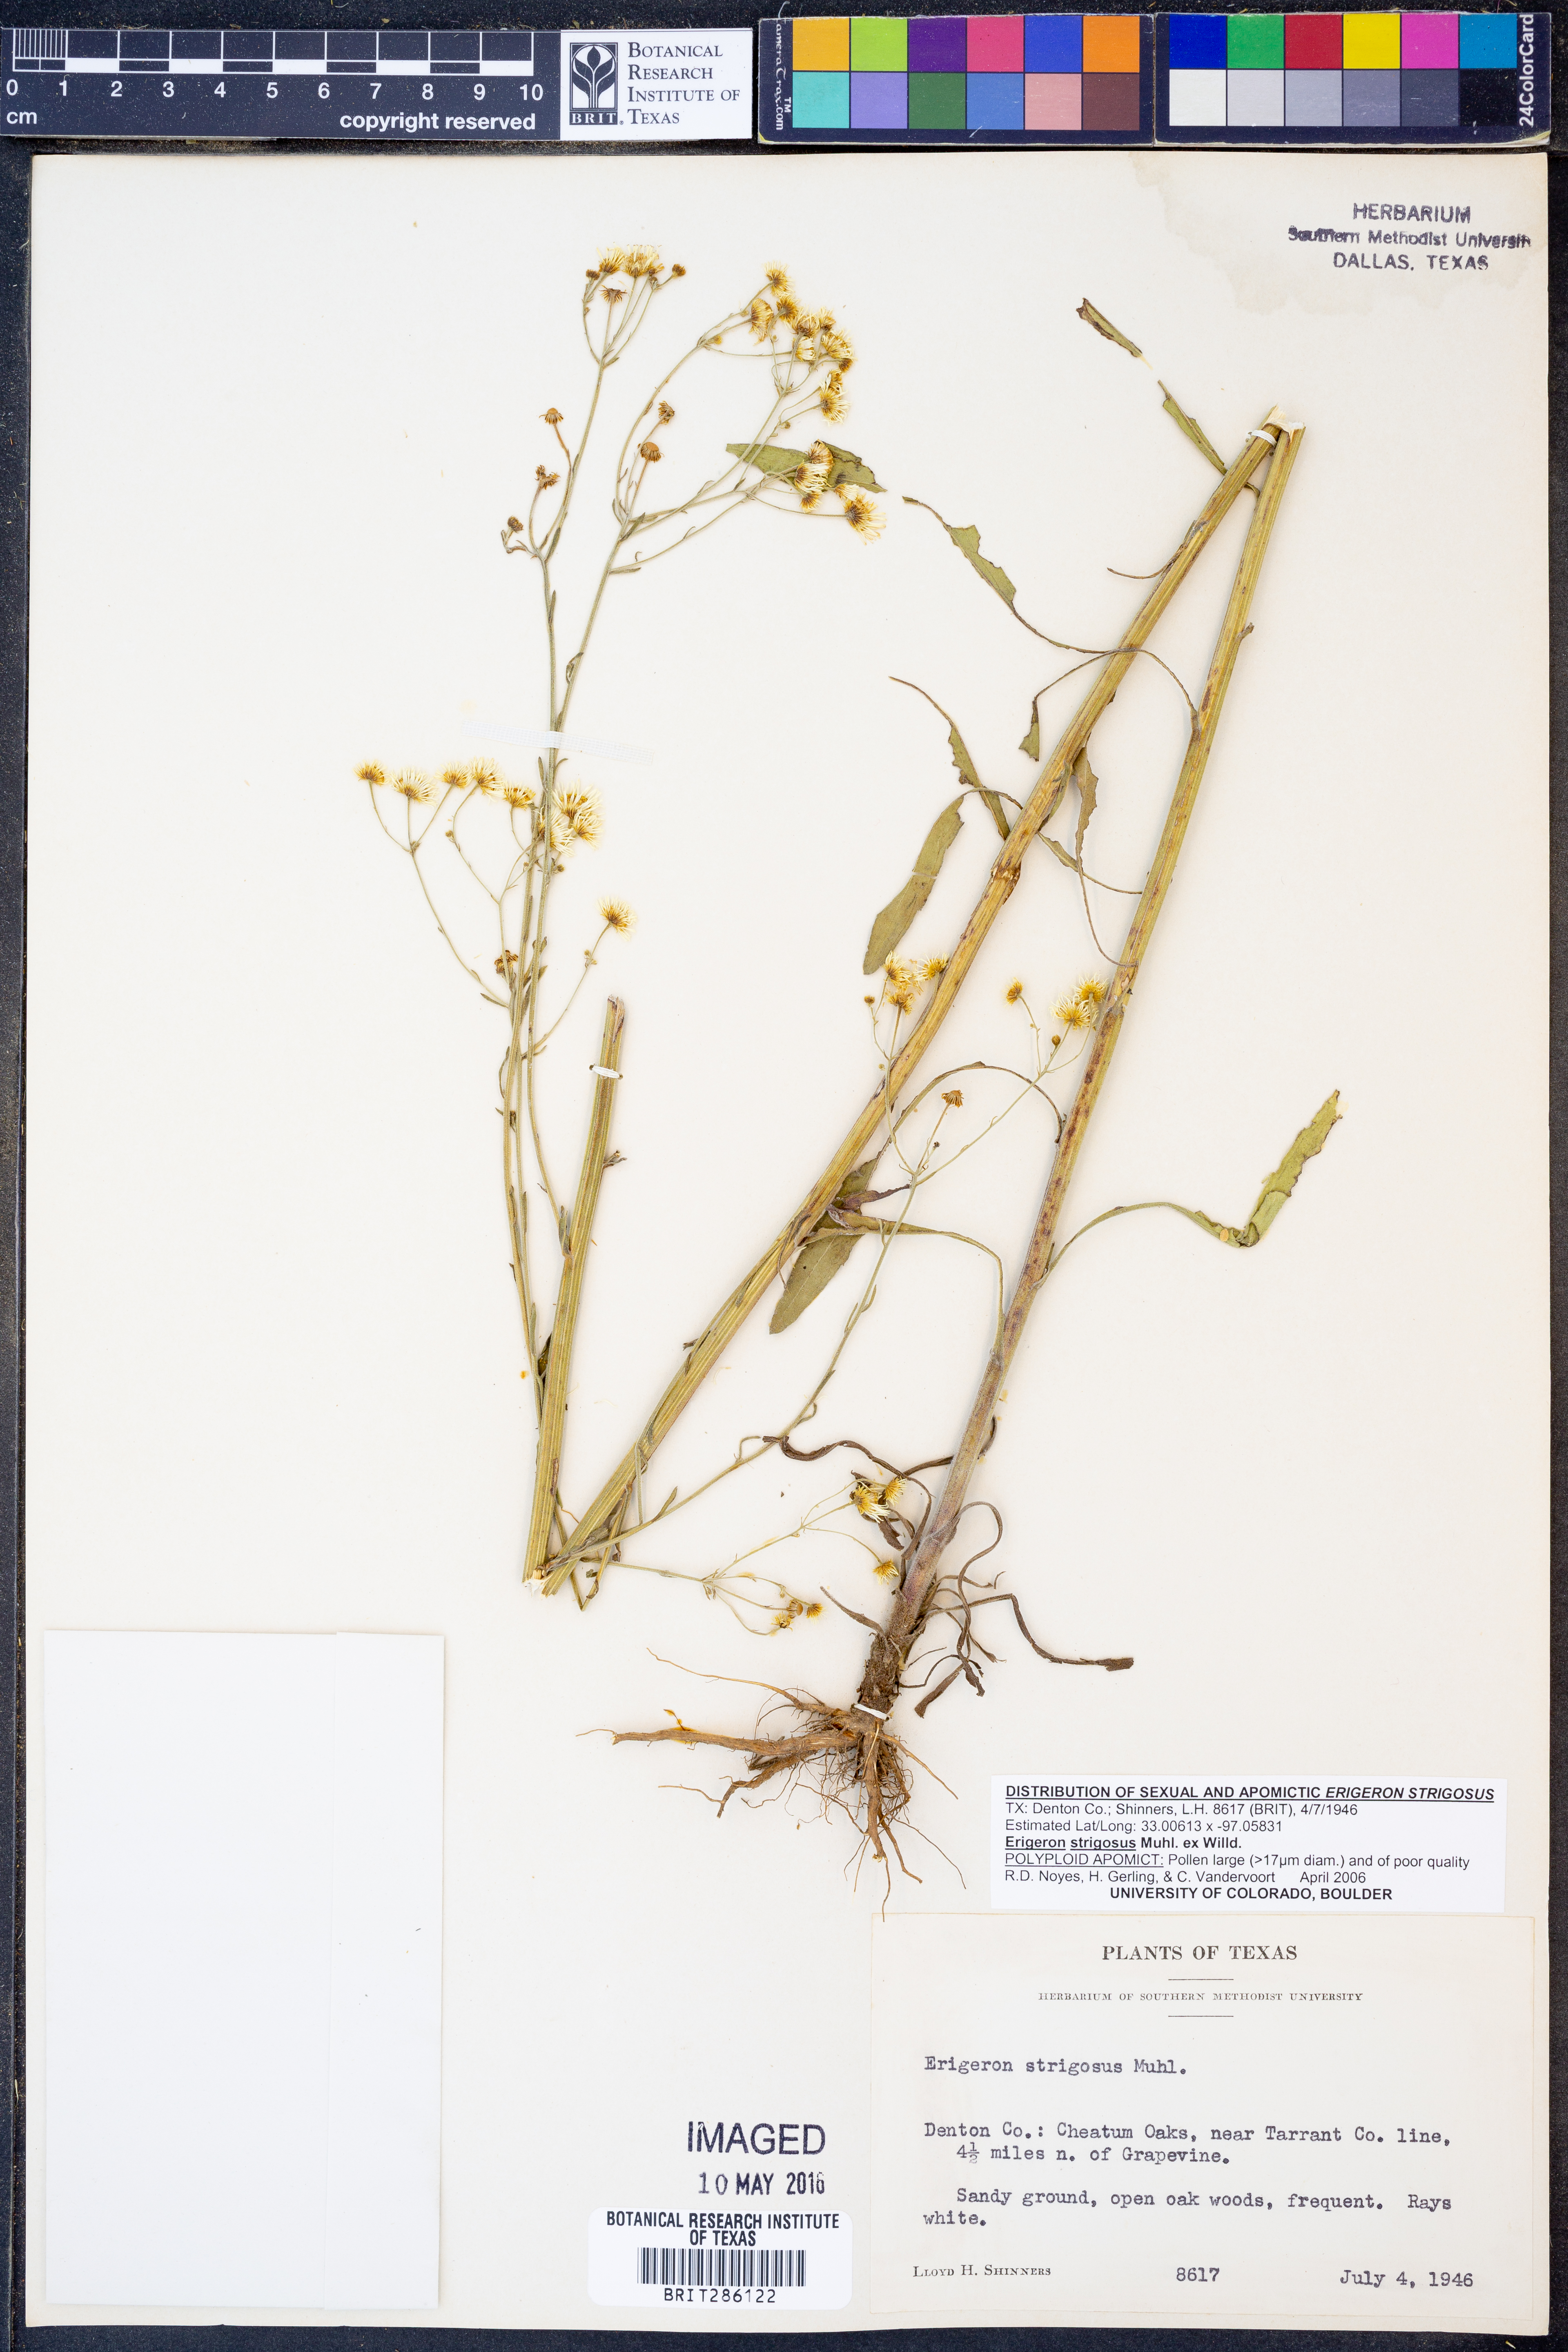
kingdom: Plantae
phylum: Tracheophyta
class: Magnoliopsida
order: Asterales
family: Asteraceae
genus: Erigeron
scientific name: Erigeron strigosus
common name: Common eastern fleabane
